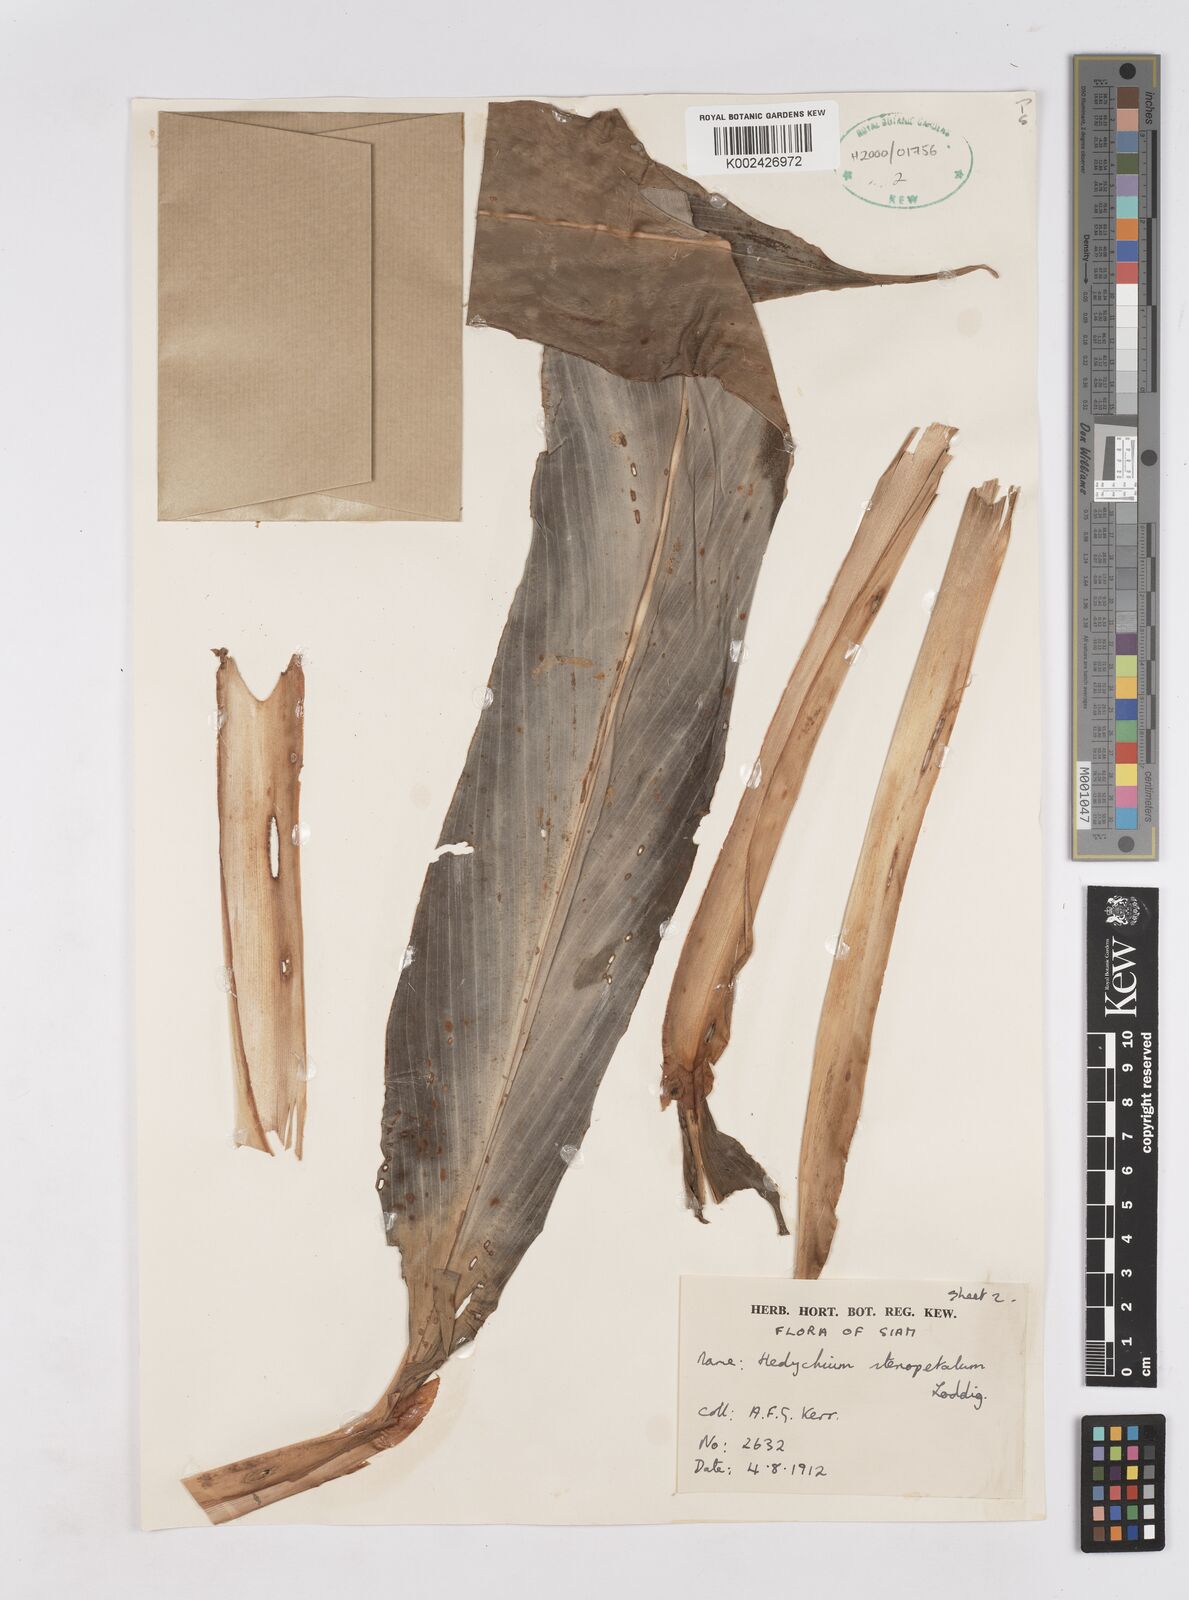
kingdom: Plantae
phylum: Tracheophyta
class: Liliopsida
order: Zingiberales
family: Zingiberaceae
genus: Hedychium
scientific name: Hedychium stenopetalum
